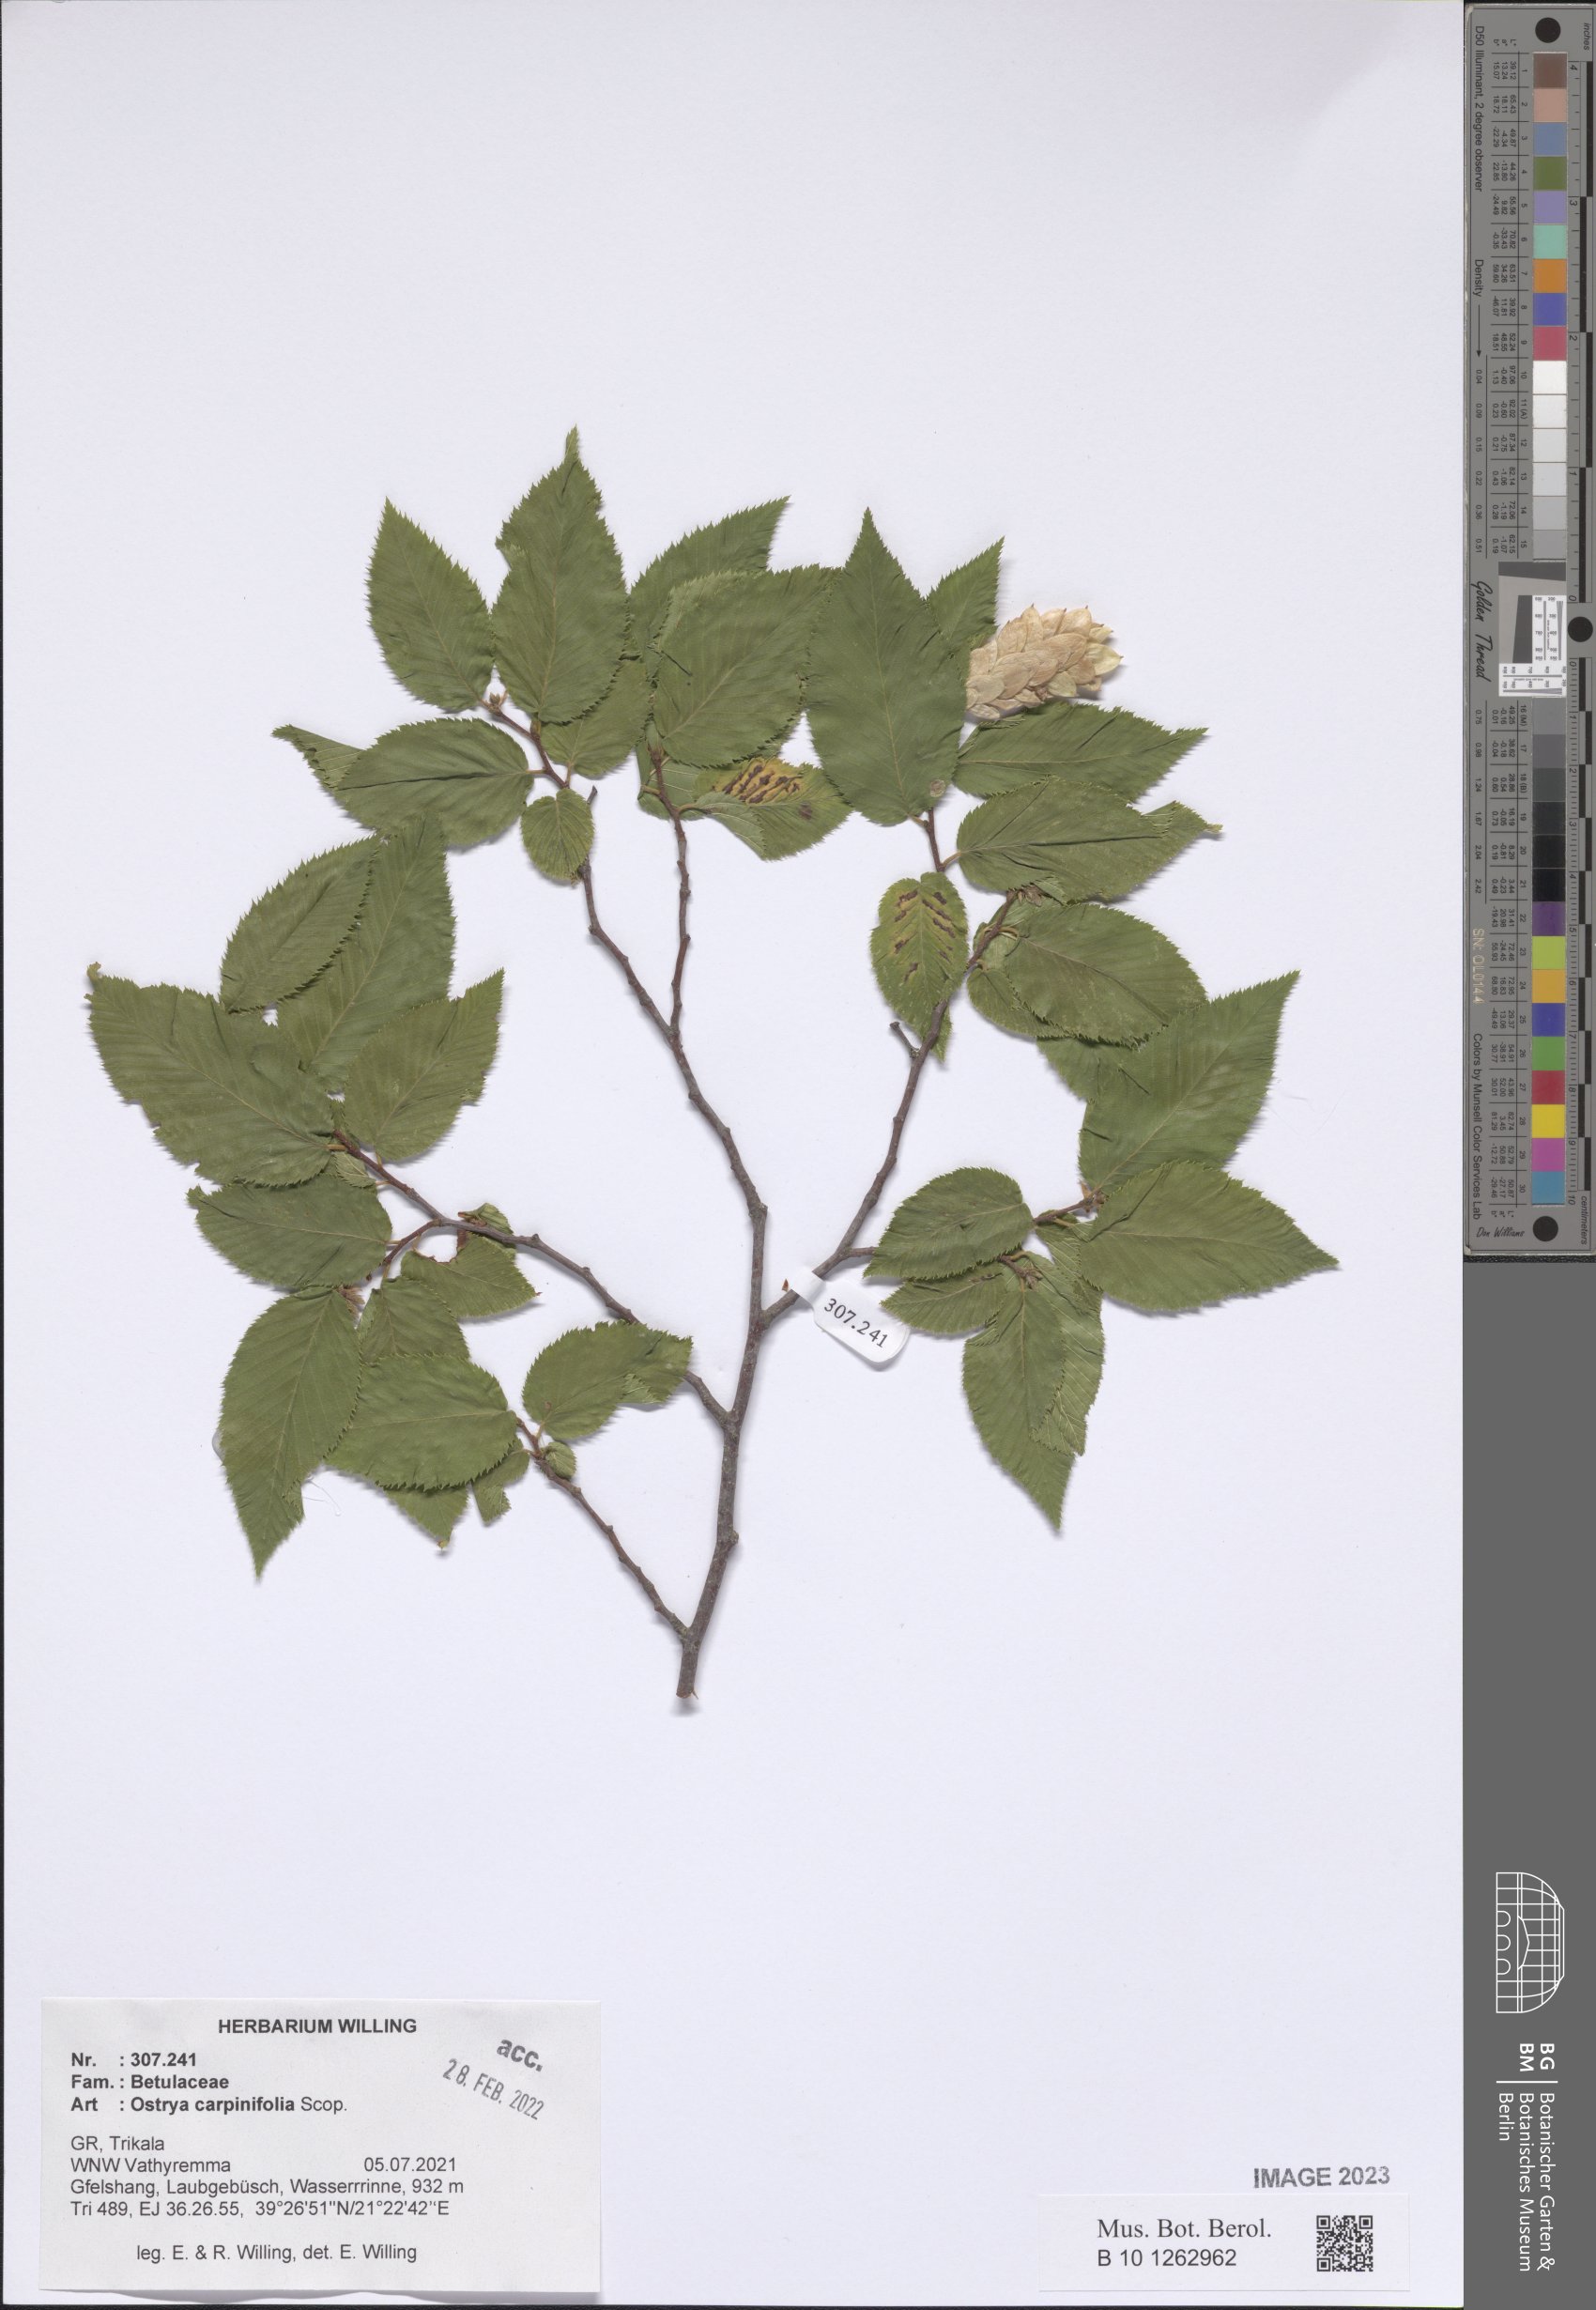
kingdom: Plantae
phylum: Tracheophyta
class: Magnoliopsida
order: Fagales
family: Betulaceae
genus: Ostrya
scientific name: Ostrya carpinifolia
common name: European hop-hornbeam
